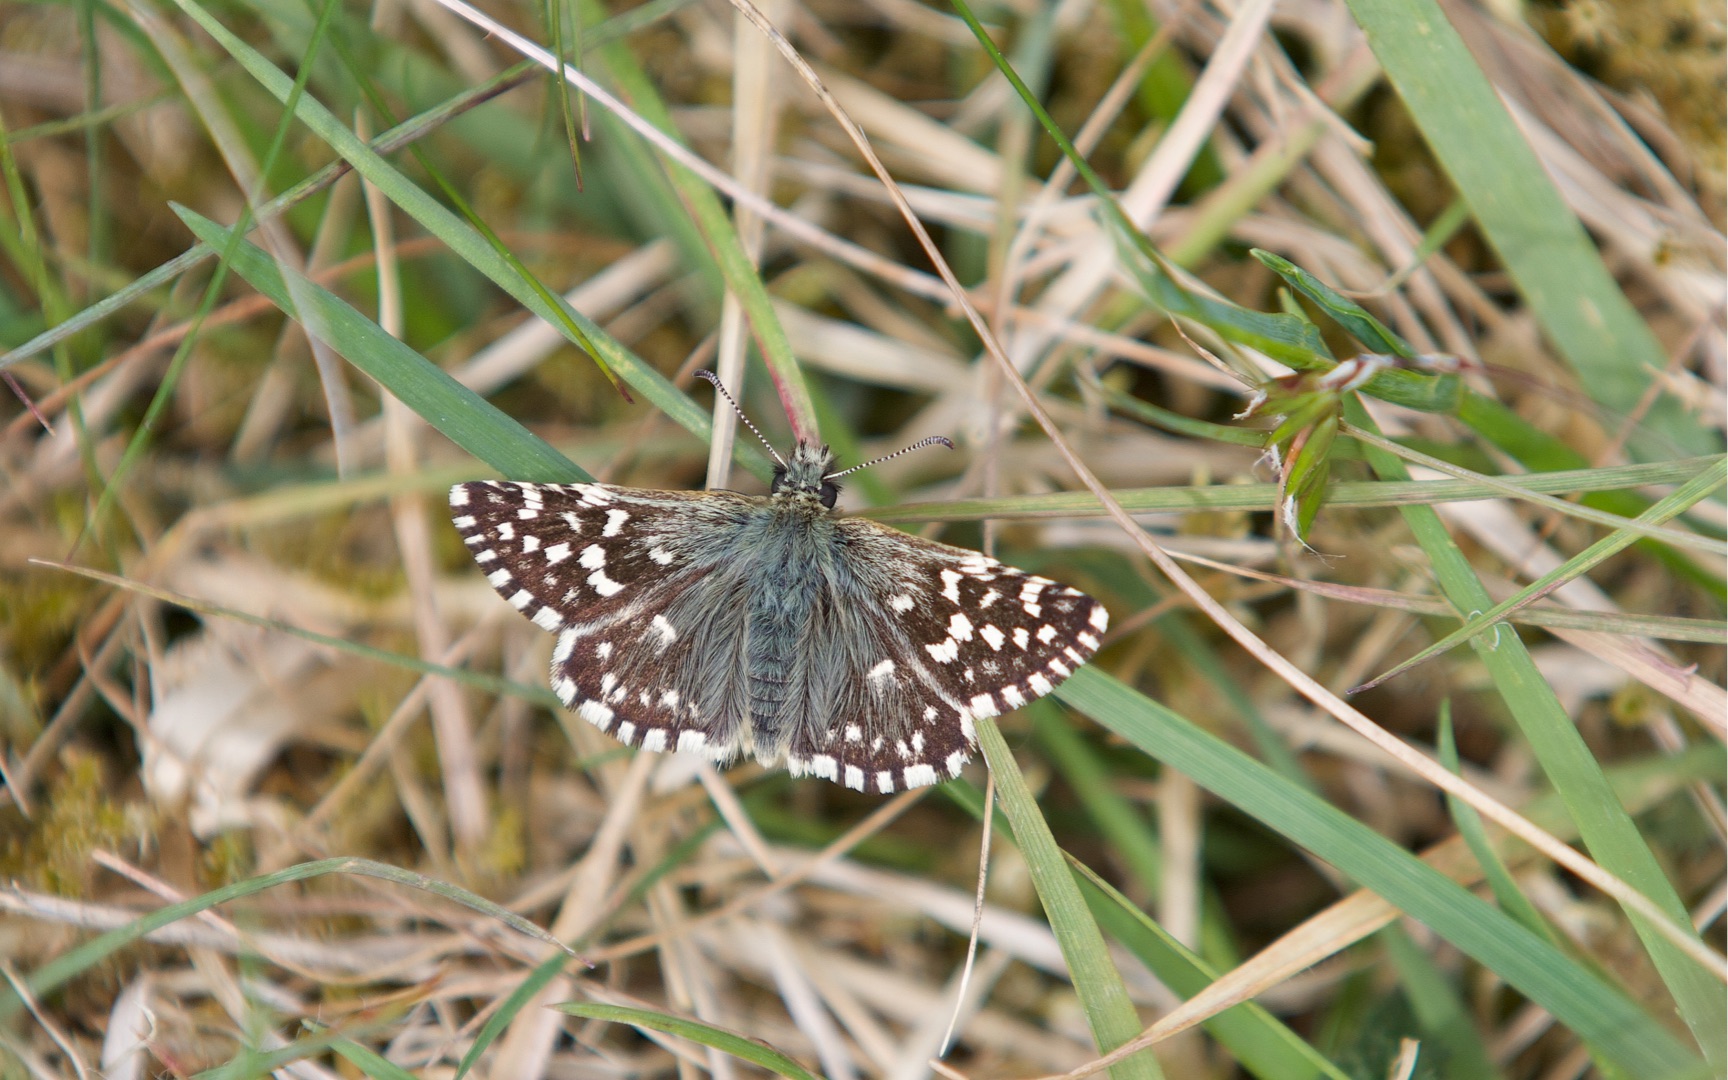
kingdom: Animalia
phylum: Arthropoda
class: Insecta
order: Lepidoptera
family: Hesperiidae
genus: Pyrgus
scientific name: Pyrgus malvae
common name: Spættet bredpande
